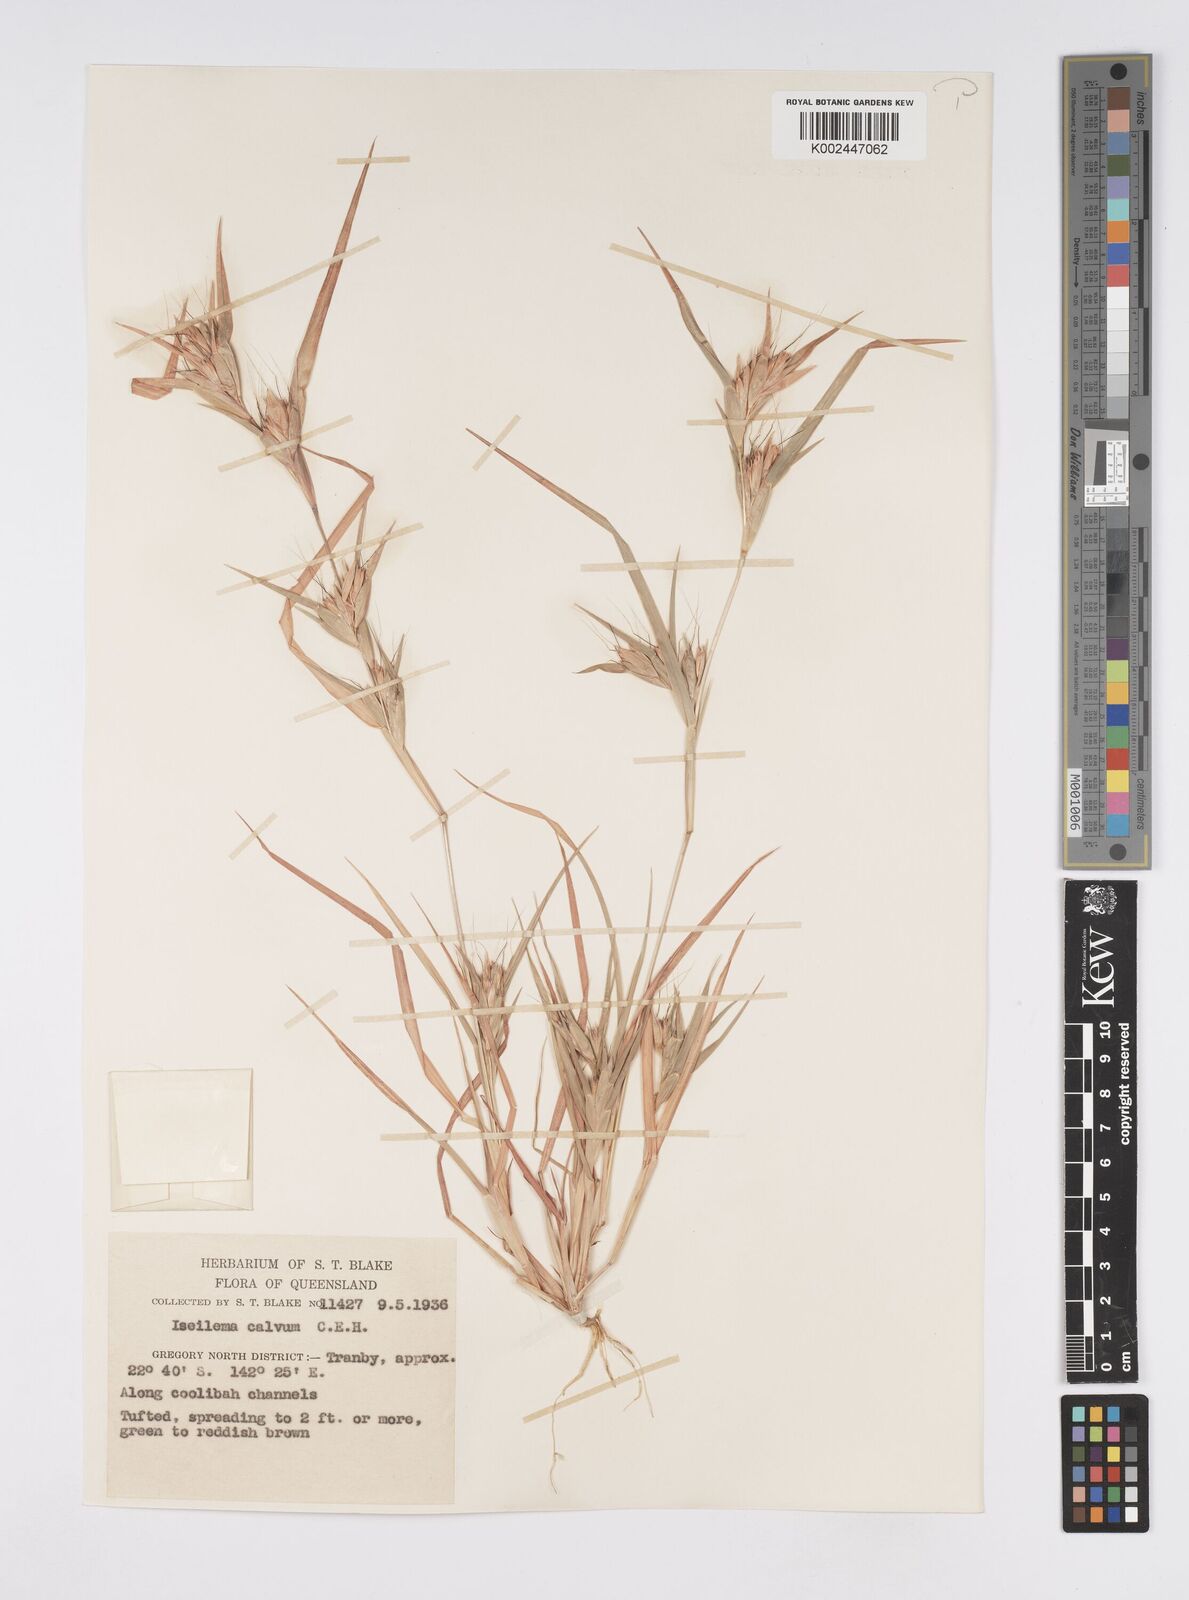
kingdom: Plantae
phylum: Tracheophyta
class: Liliopsida
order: Poales
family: Poaceae
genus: Iseilema
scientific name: Iseilema calvum
